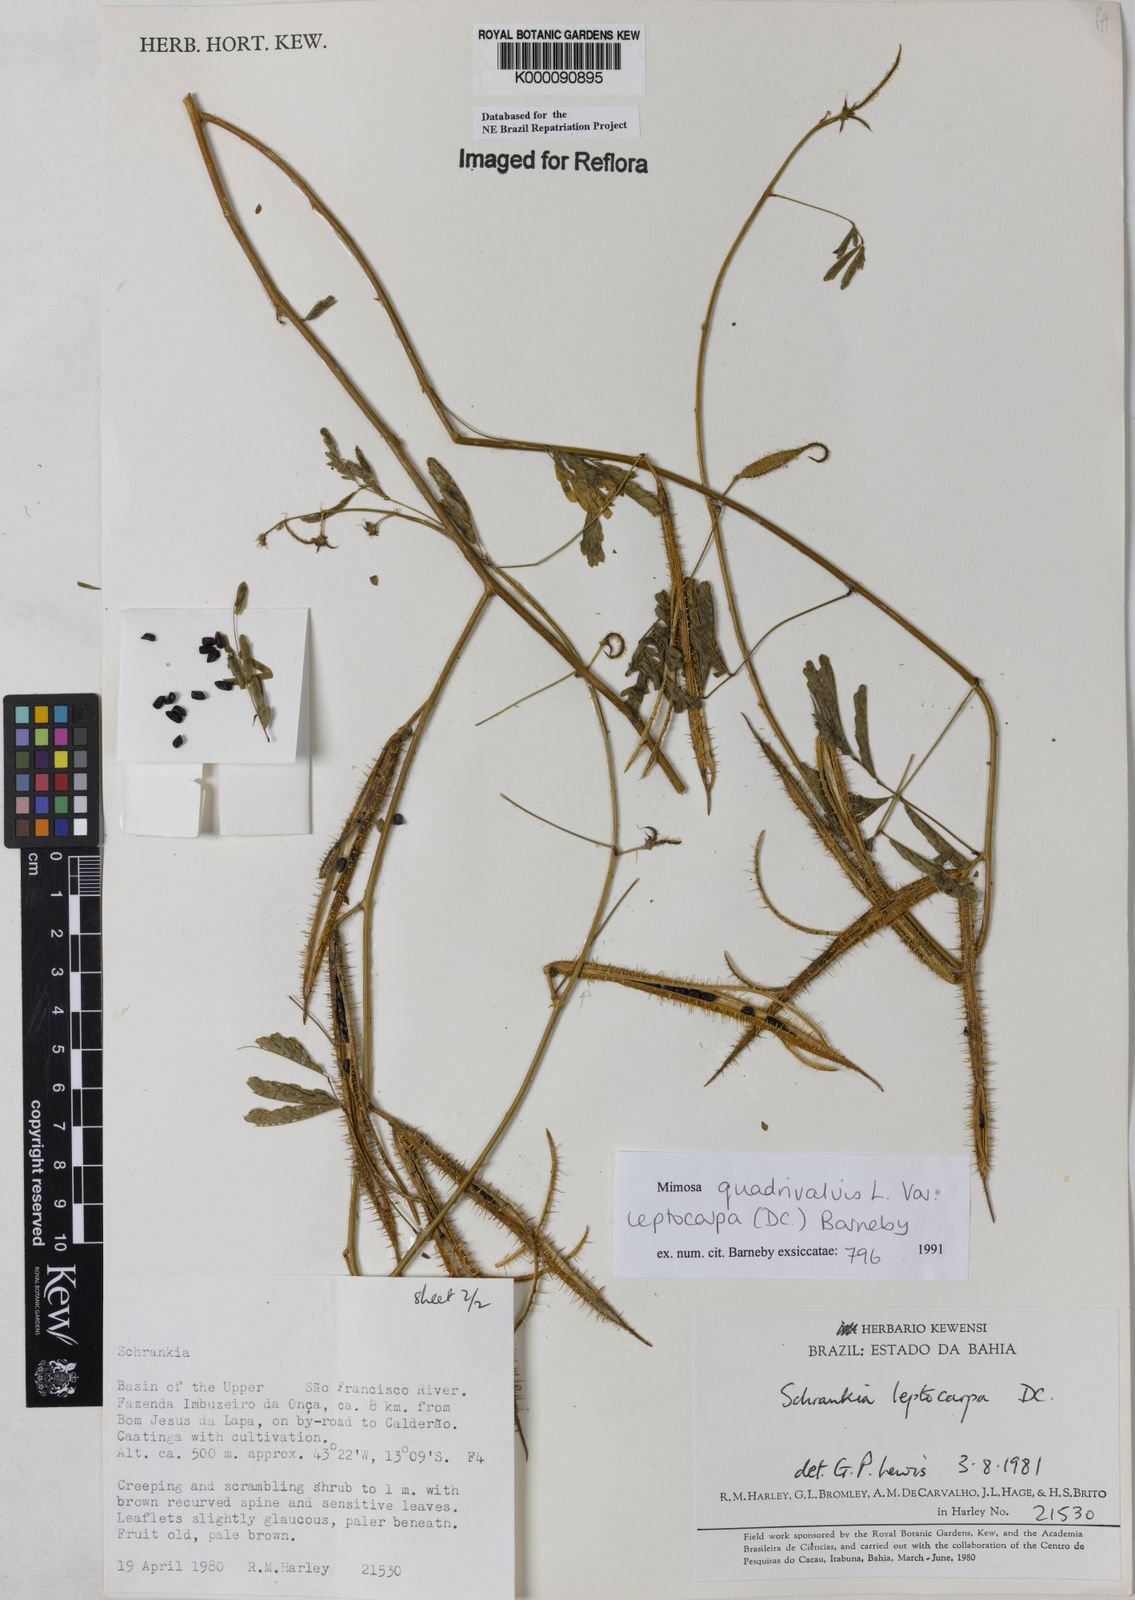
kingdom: Plantae
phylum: Tracheophyta
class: Magnoliopsida
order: Fabales
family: Fabaceae
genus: Mimosa
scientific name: Mimosa candollei
